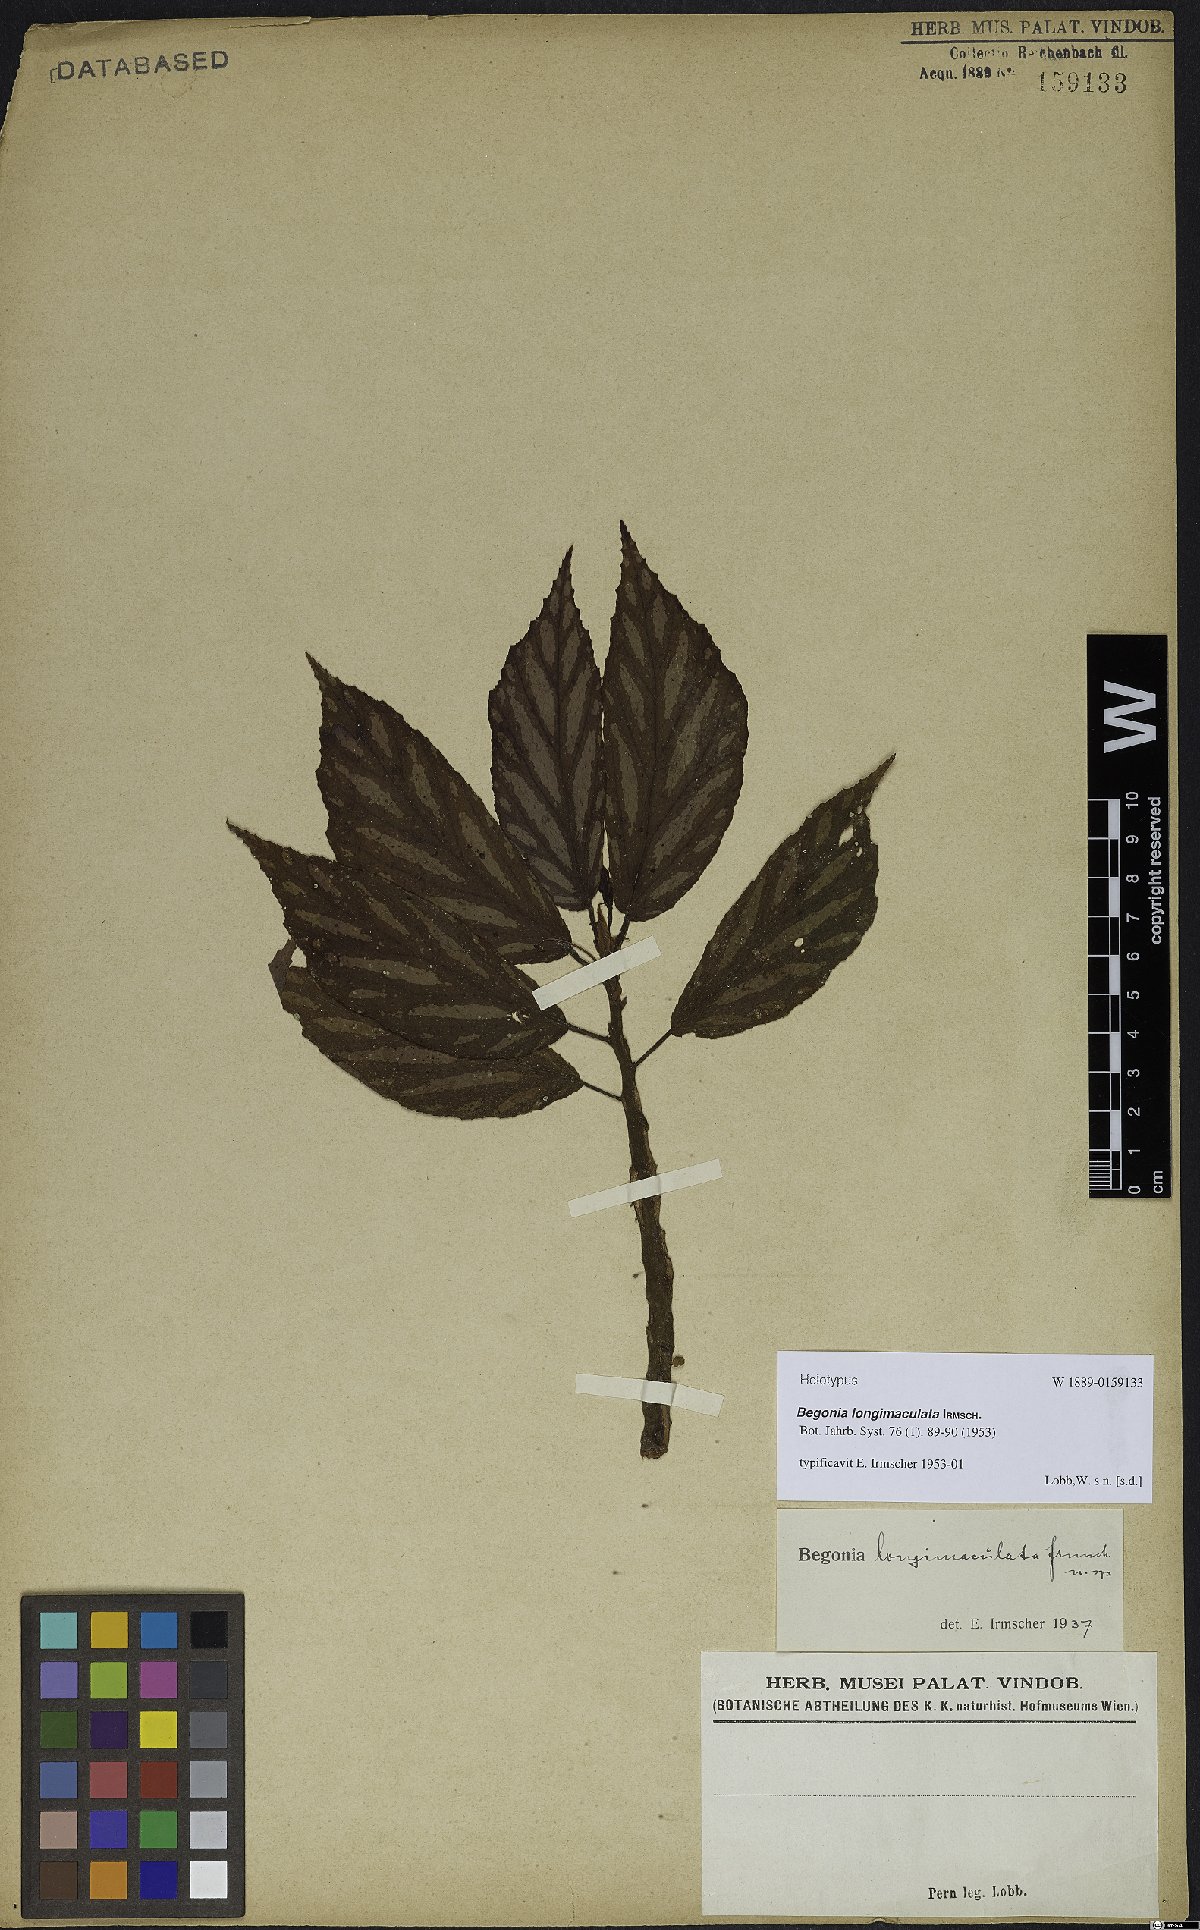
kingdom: Plantae
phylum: Tracheophyta
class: Magnoliopsida
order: Cucurbitales
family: Begoniaceae
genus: Begonia
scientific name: Begonia maynensis
